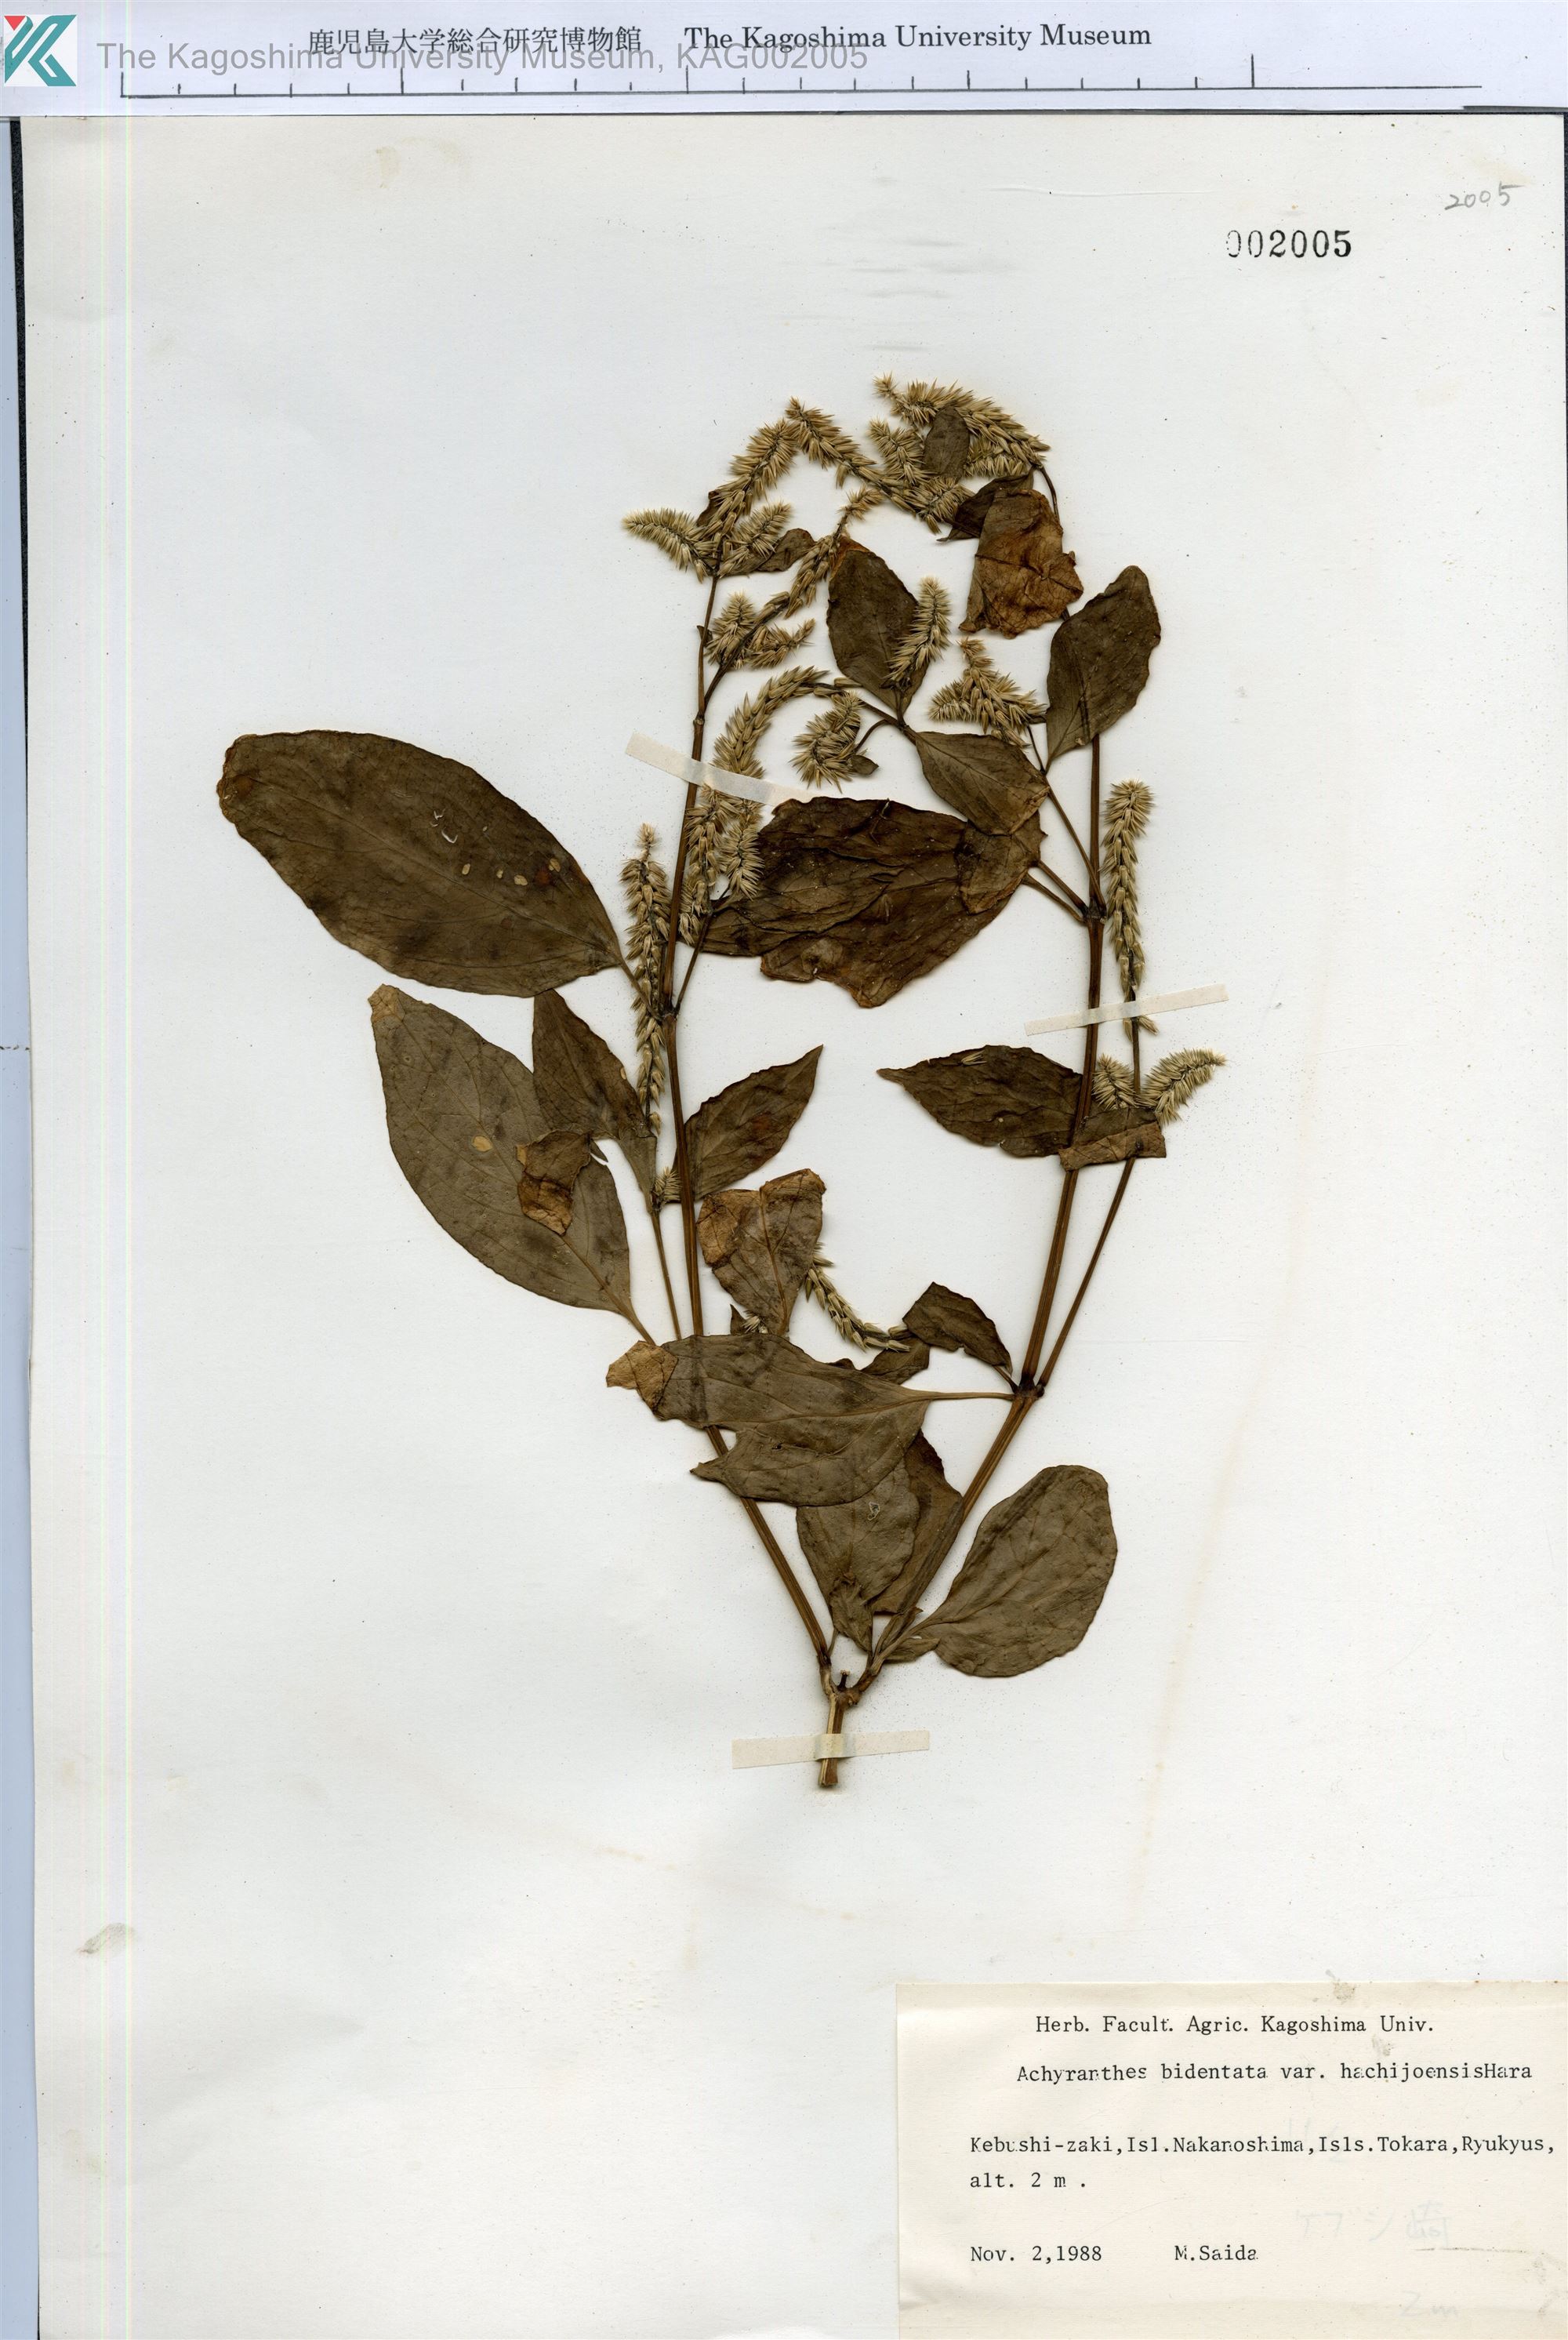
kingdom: Plantae
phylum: Tracheophyta
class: Magnoliopsida
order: Caryophyllales
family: Amaranthaceae
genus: Achyranthes
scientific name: Achyranthes bidentata
